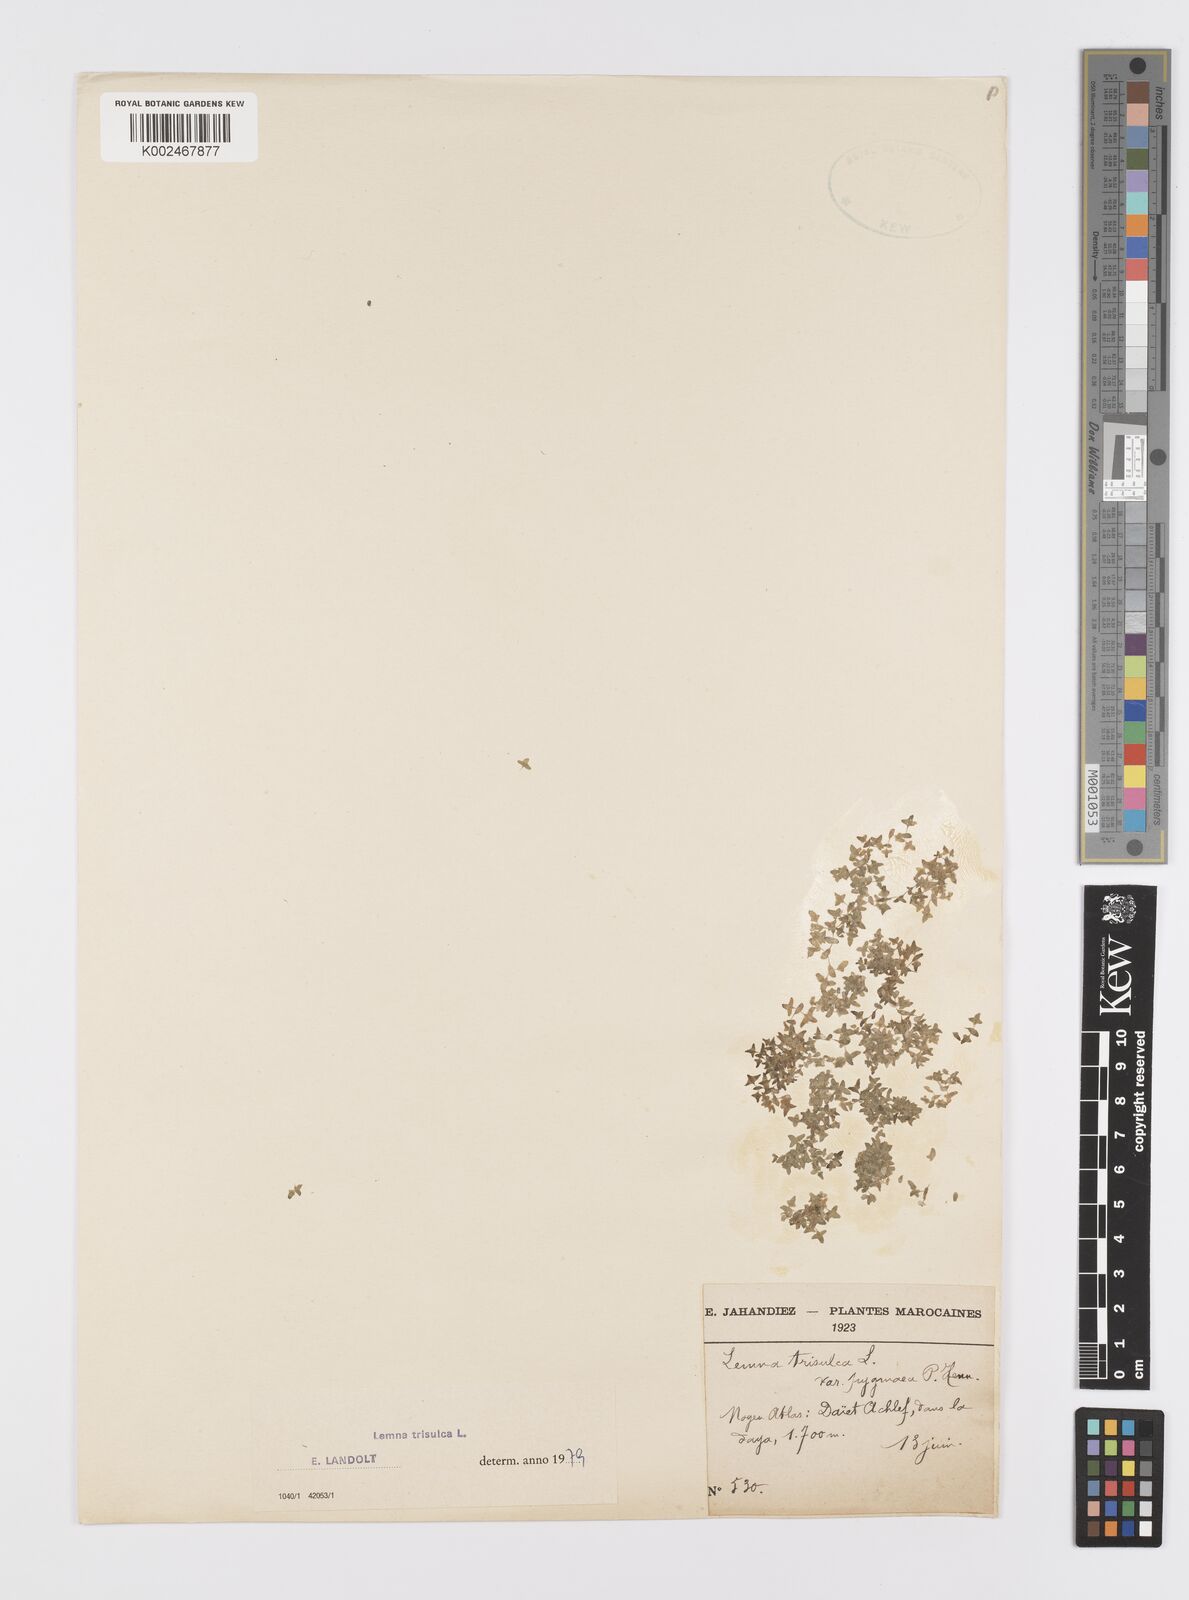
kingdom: Plantae
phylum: Tracheophyta
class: Liliopsida
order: Alismatales
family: Araceae
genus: Lemna
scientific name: Lemna trisulca
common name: Ivy-leaved duckweed
